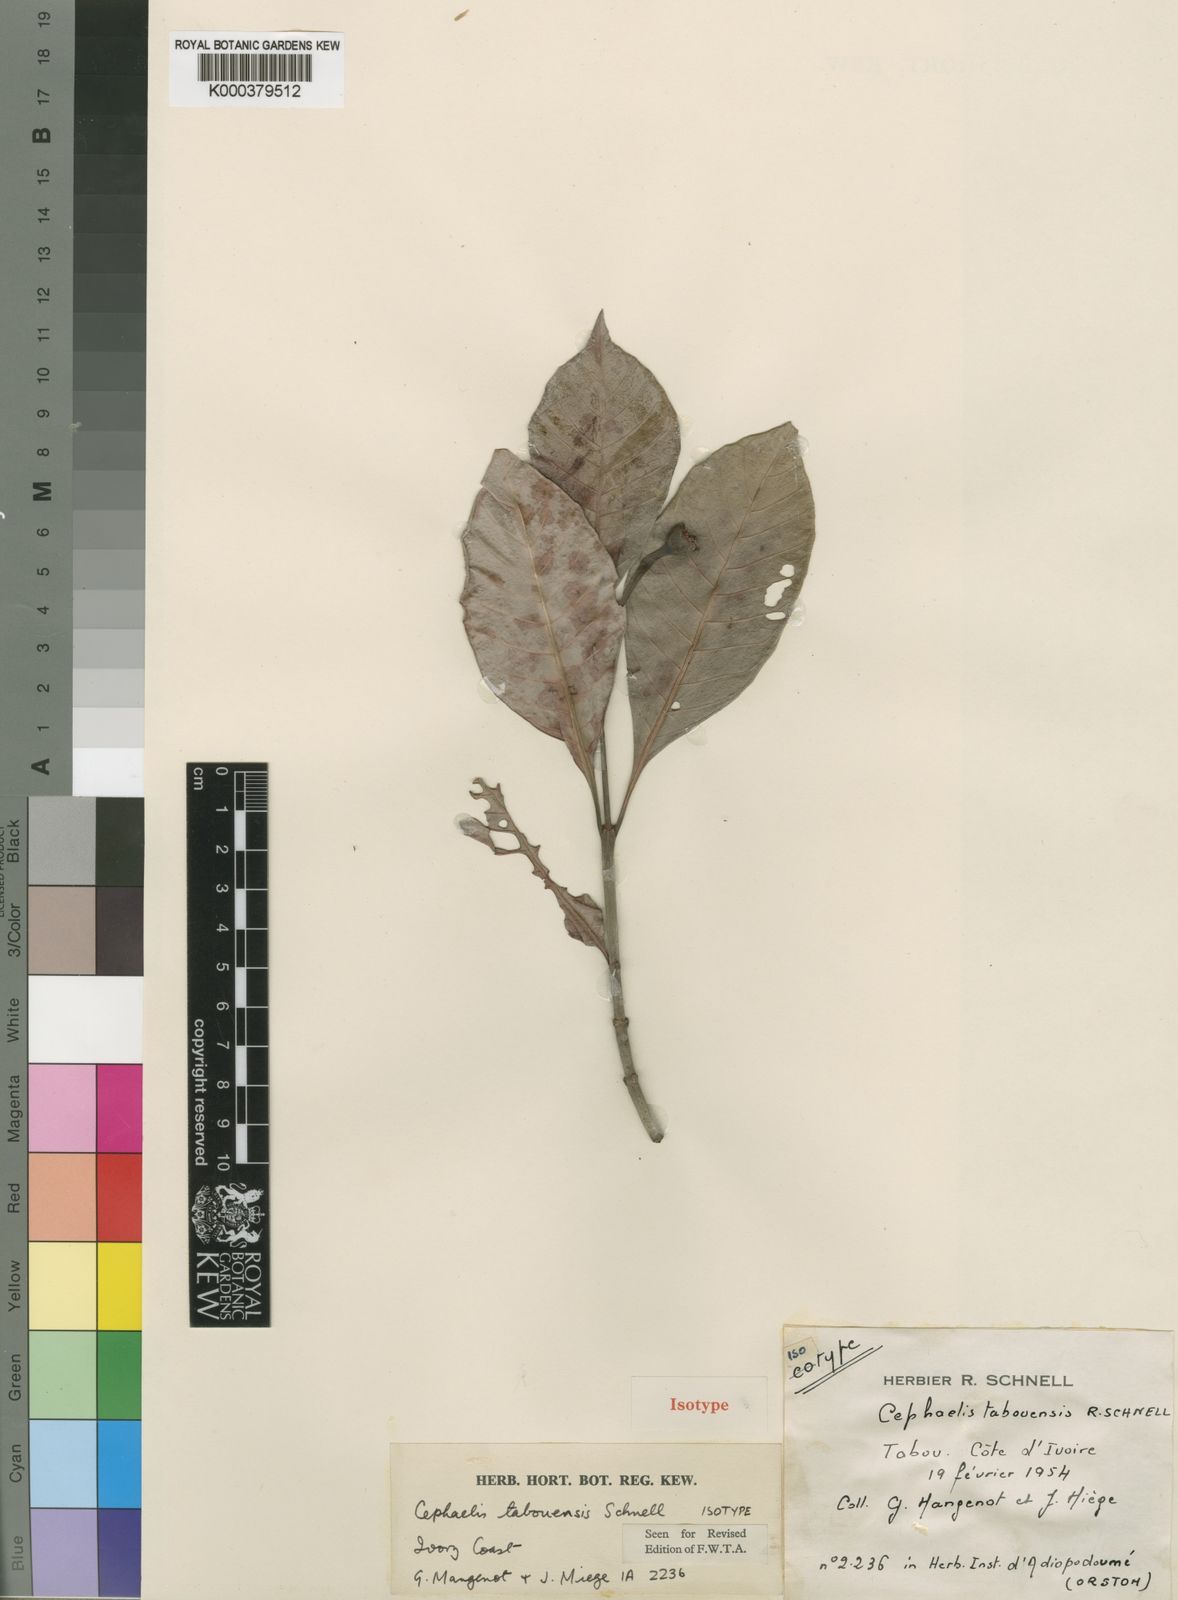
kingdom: Plantae
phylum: Tracheophyta
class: Magnoliopsida
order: Gentianales
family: Rubiaceae
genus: Psychotria
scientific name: Psychotria abouabouensis
